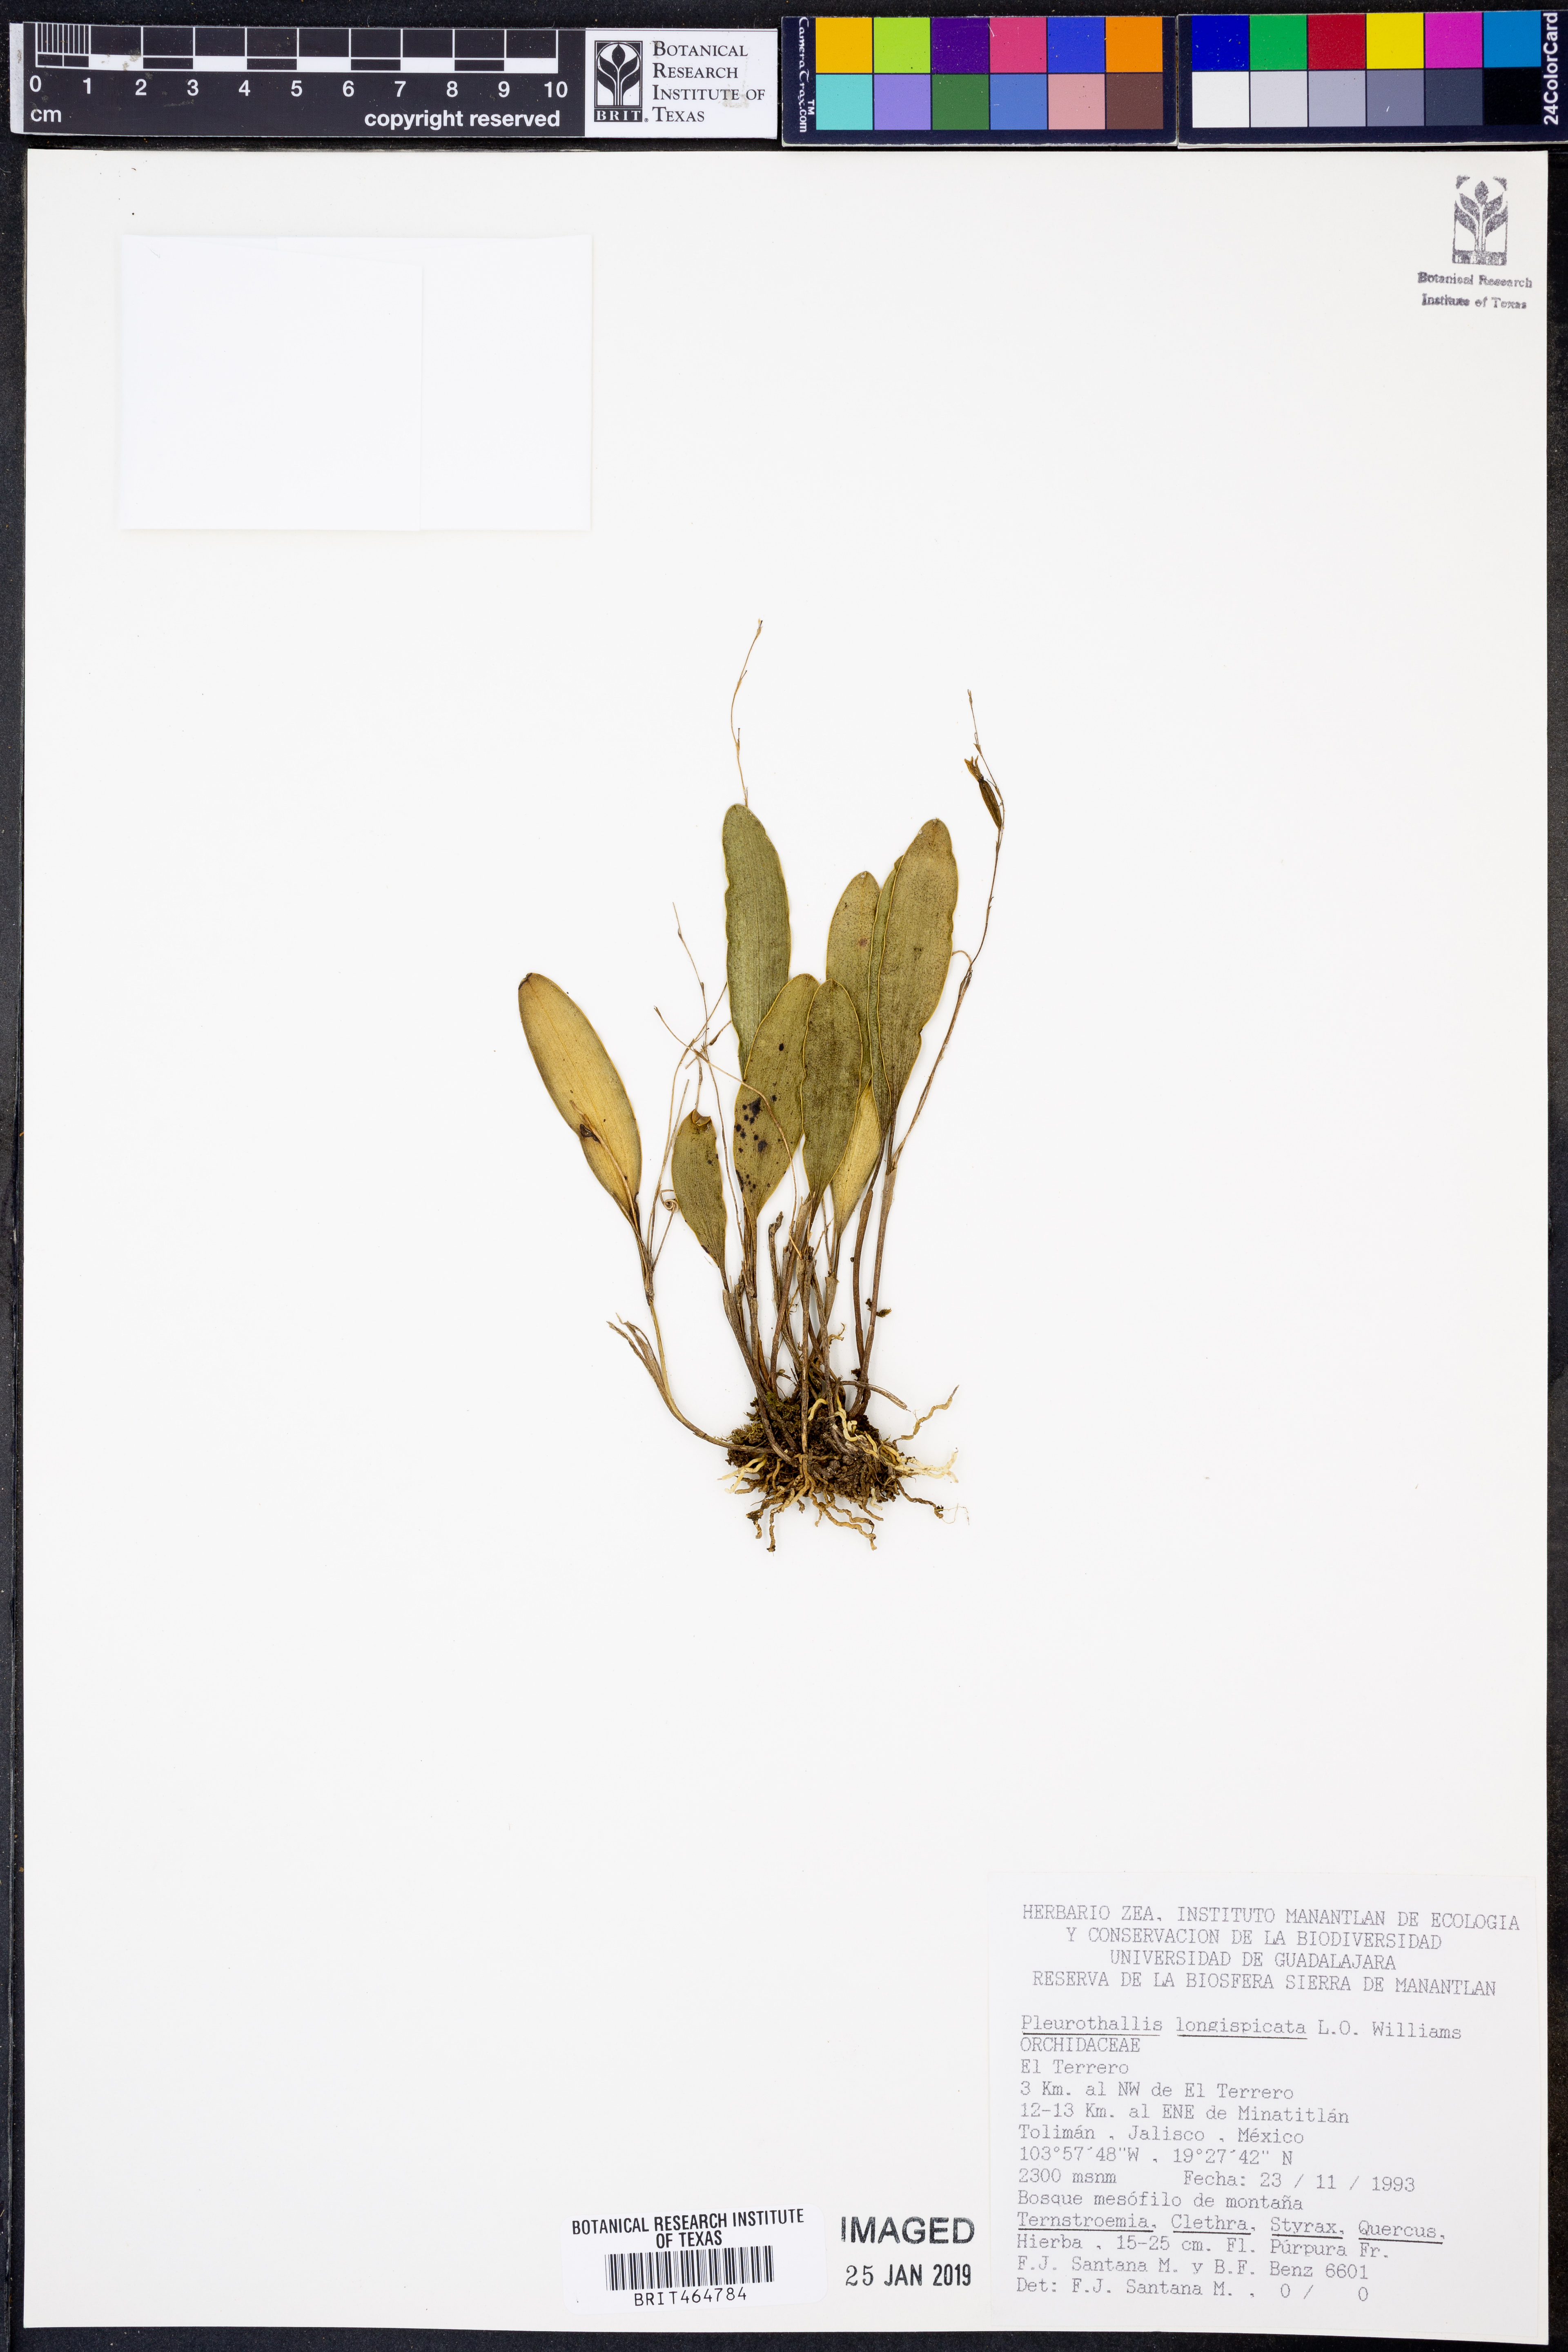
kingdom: Plantae
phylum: Tracheophyta
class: Liliopsida
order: Asparagales
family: Orchidaceae
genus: Stelis
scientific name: Stelis longispicata
